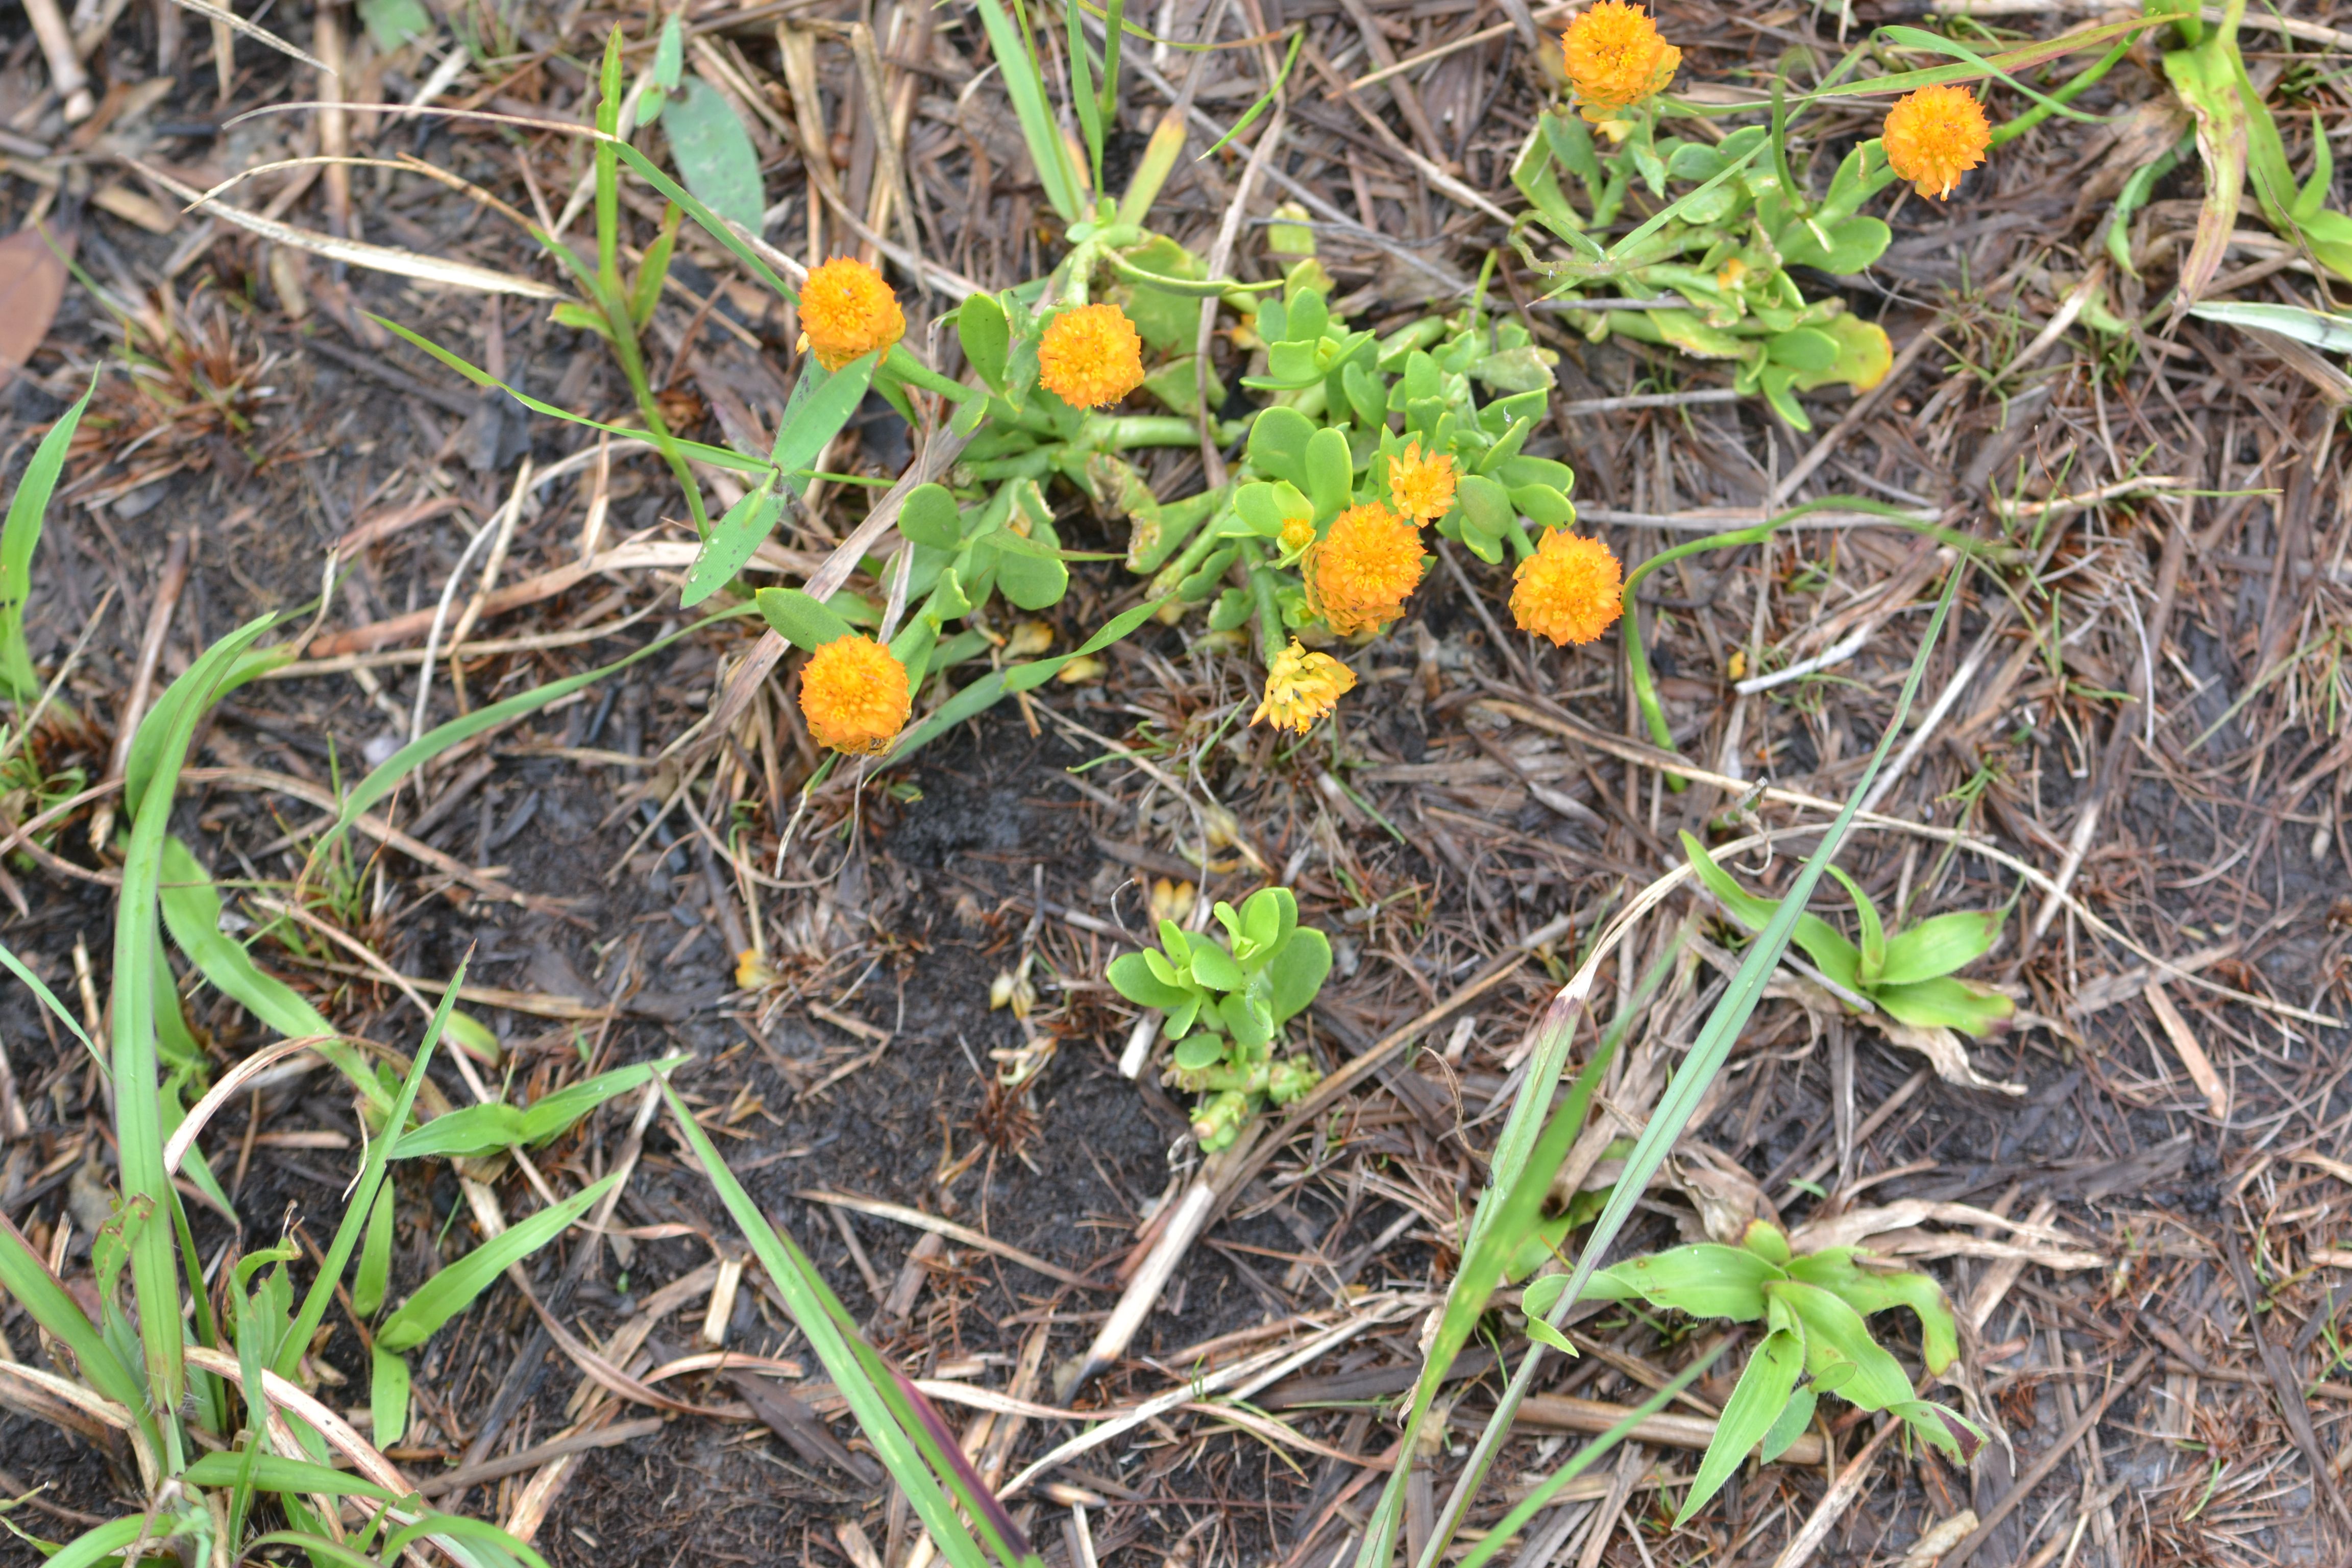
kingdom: Plantae
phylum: Tracheophyta
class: Magnoliopsida
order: Fabales
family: Polygalaceae
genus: Polygala
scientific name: Polygala lutea
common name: Orange Milkwort
